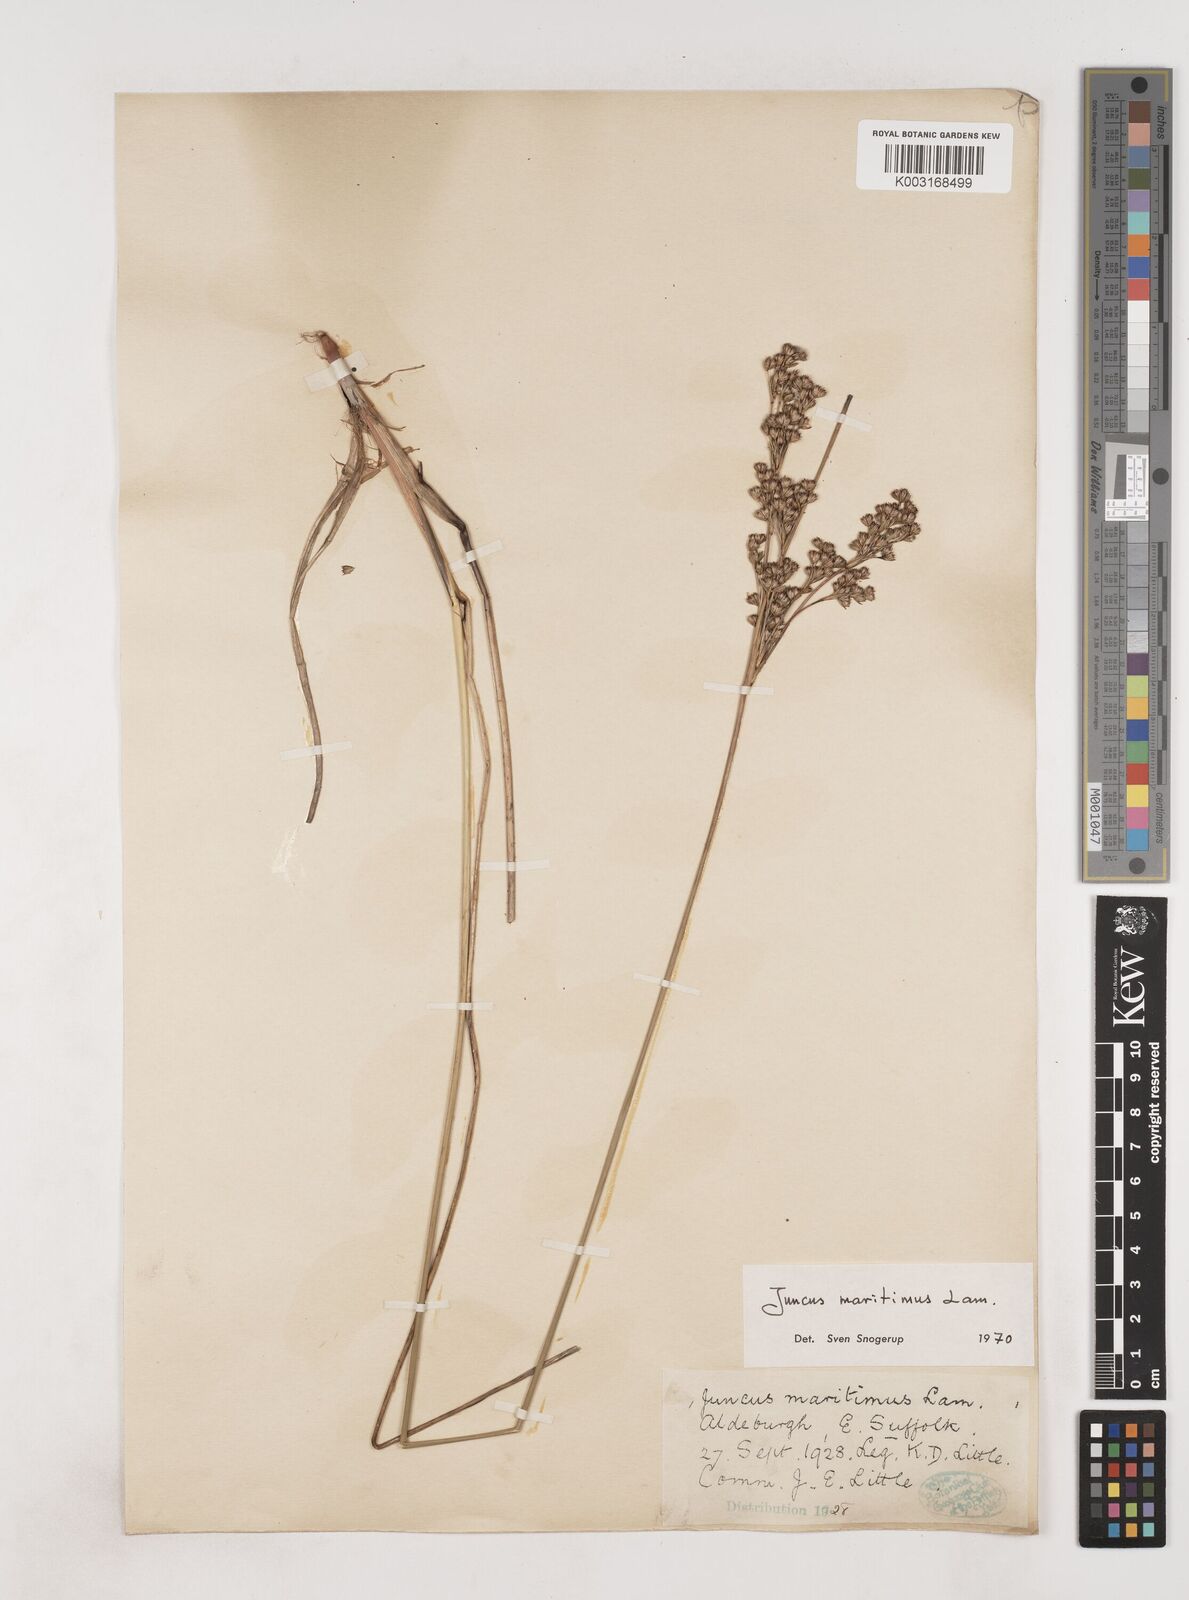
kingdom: Plantae
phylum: Tracheophyta
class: Liliopsida
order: Poales
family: Juncaceae
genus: Juncus
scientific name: Juncus maritimus
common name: Sea rush
